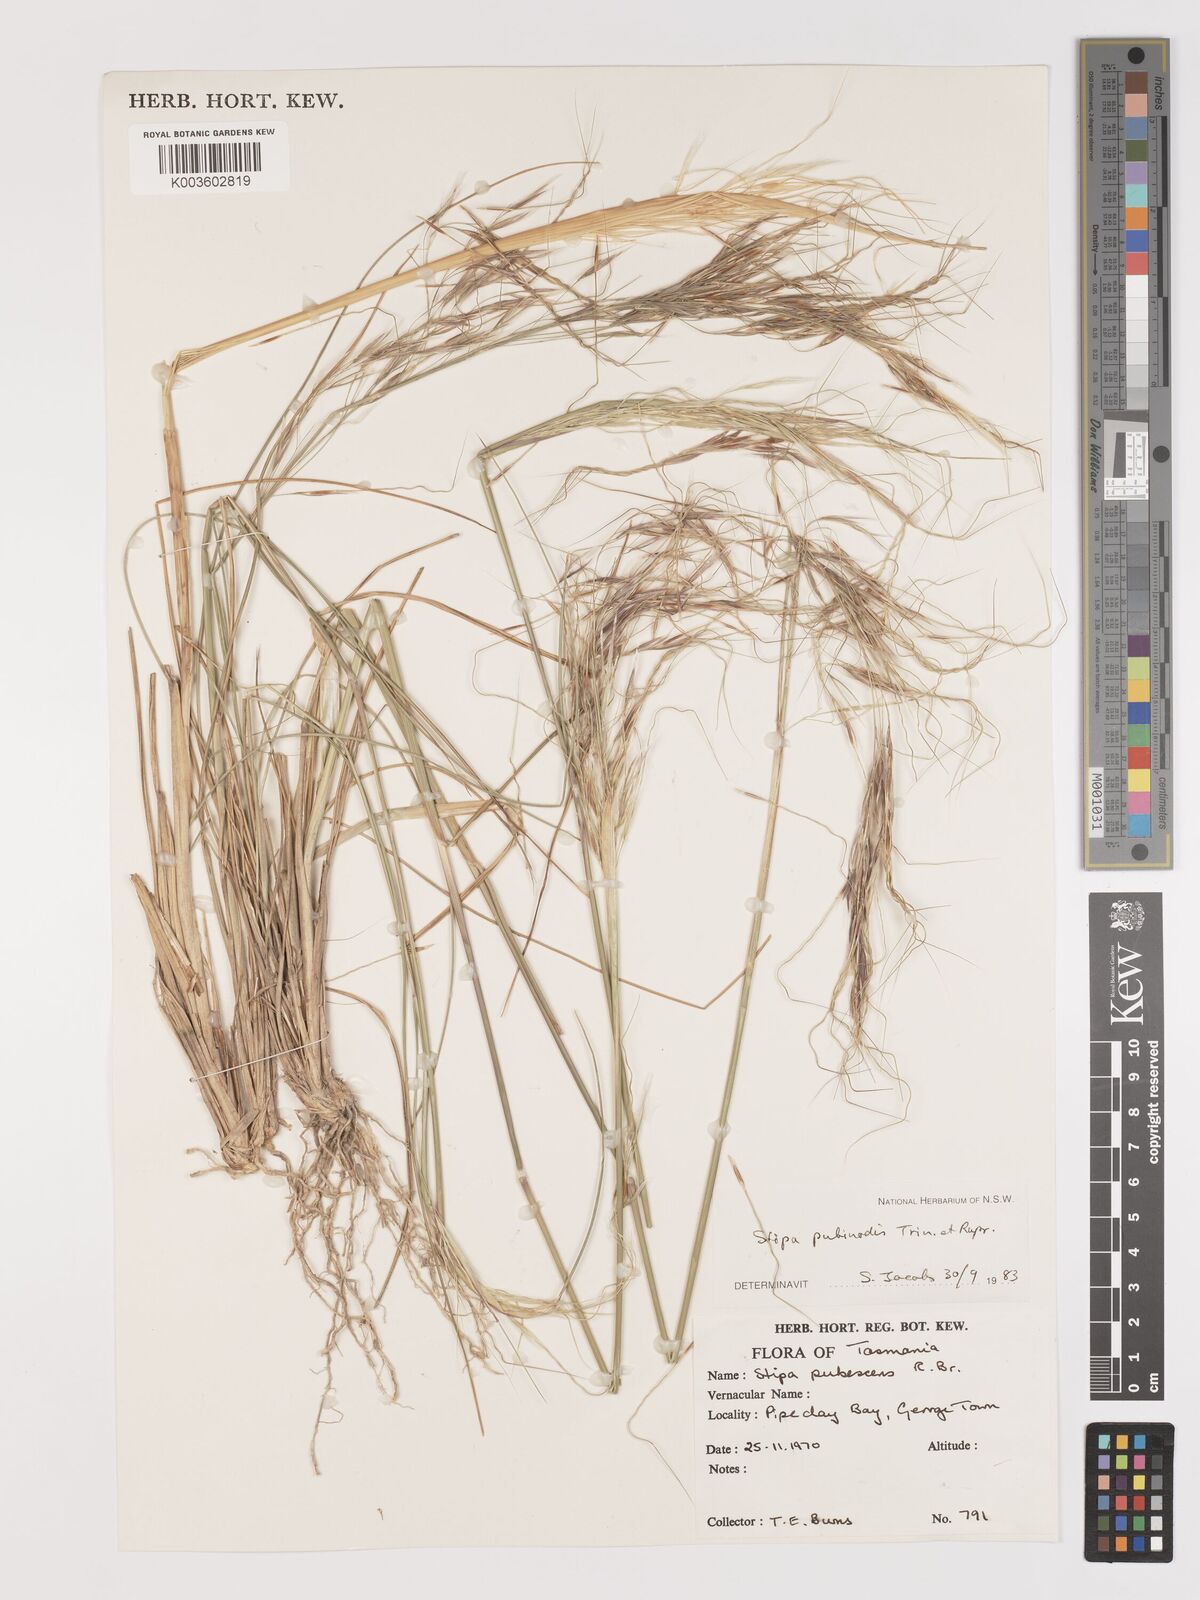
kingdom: Plantae
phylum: Tracheophyta
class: Liliopsida
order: Poales
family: Poaceae
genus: Austrostipa
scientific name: Austrostipa pubinodis
